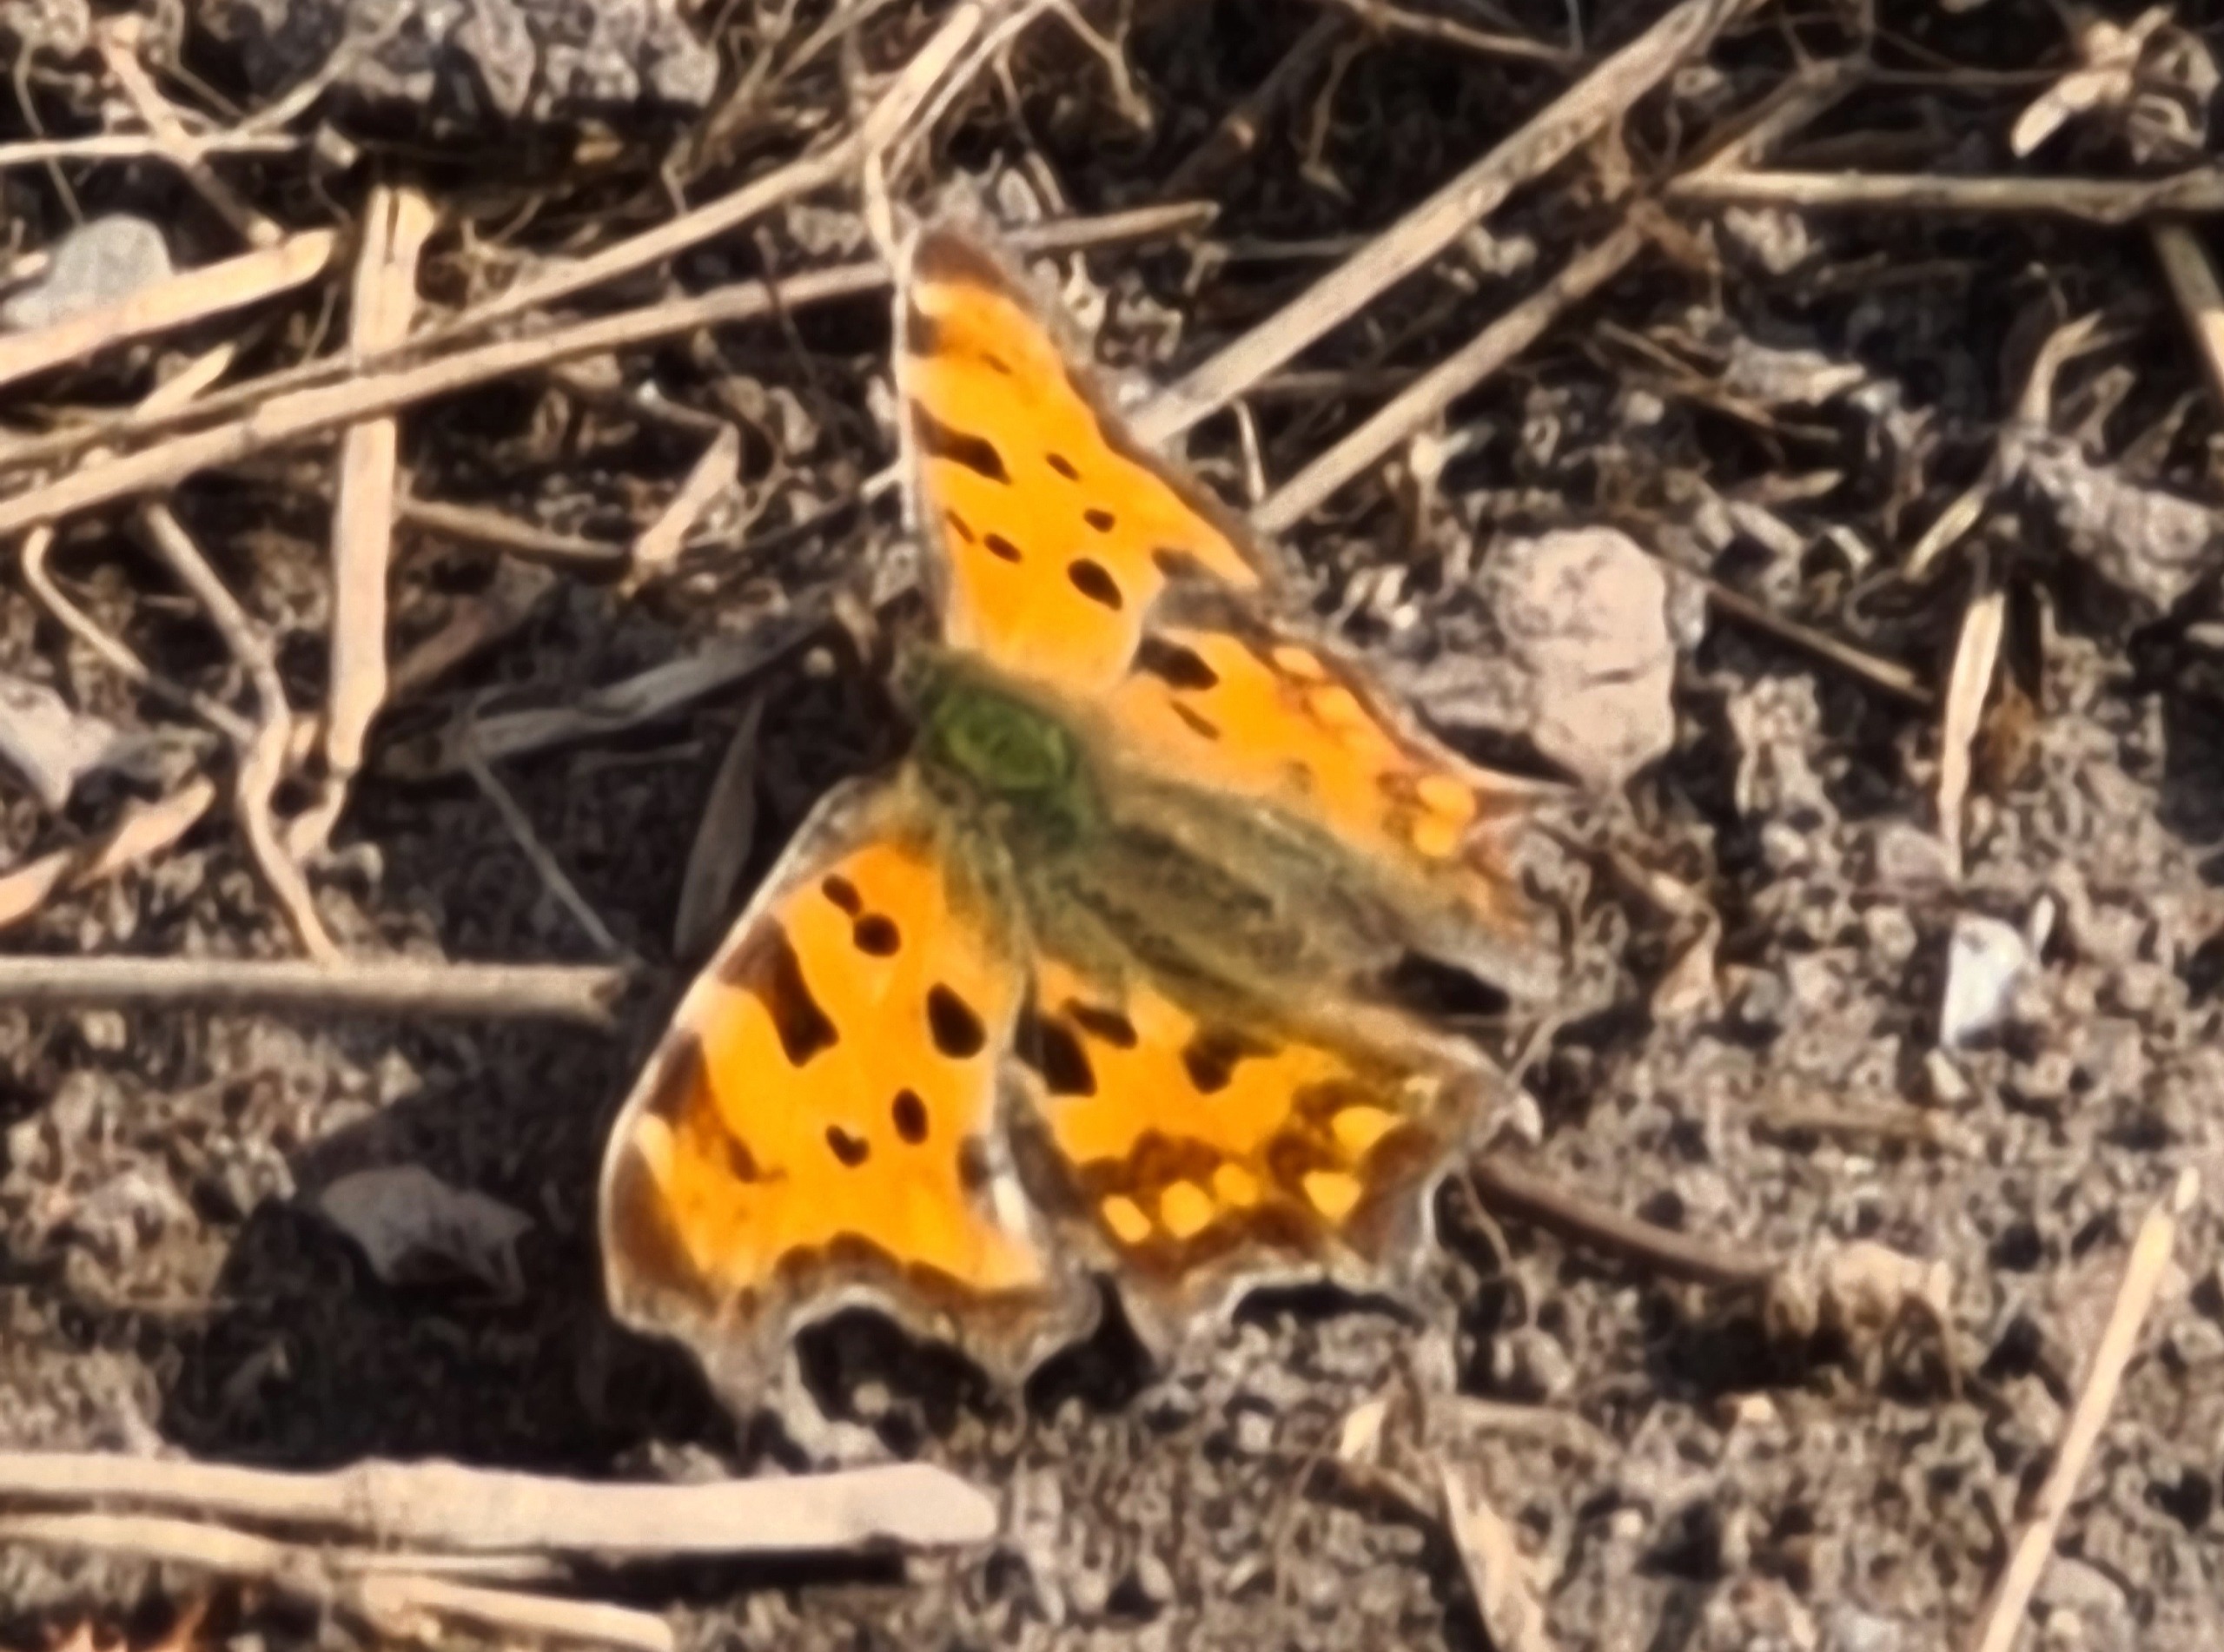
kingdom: Animalia
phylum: Arthropoda
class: Insecta
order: Lepidoptera
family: Nymphalidae
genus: Polygonia
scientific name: Polygonia c-album
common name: Det hvide C
